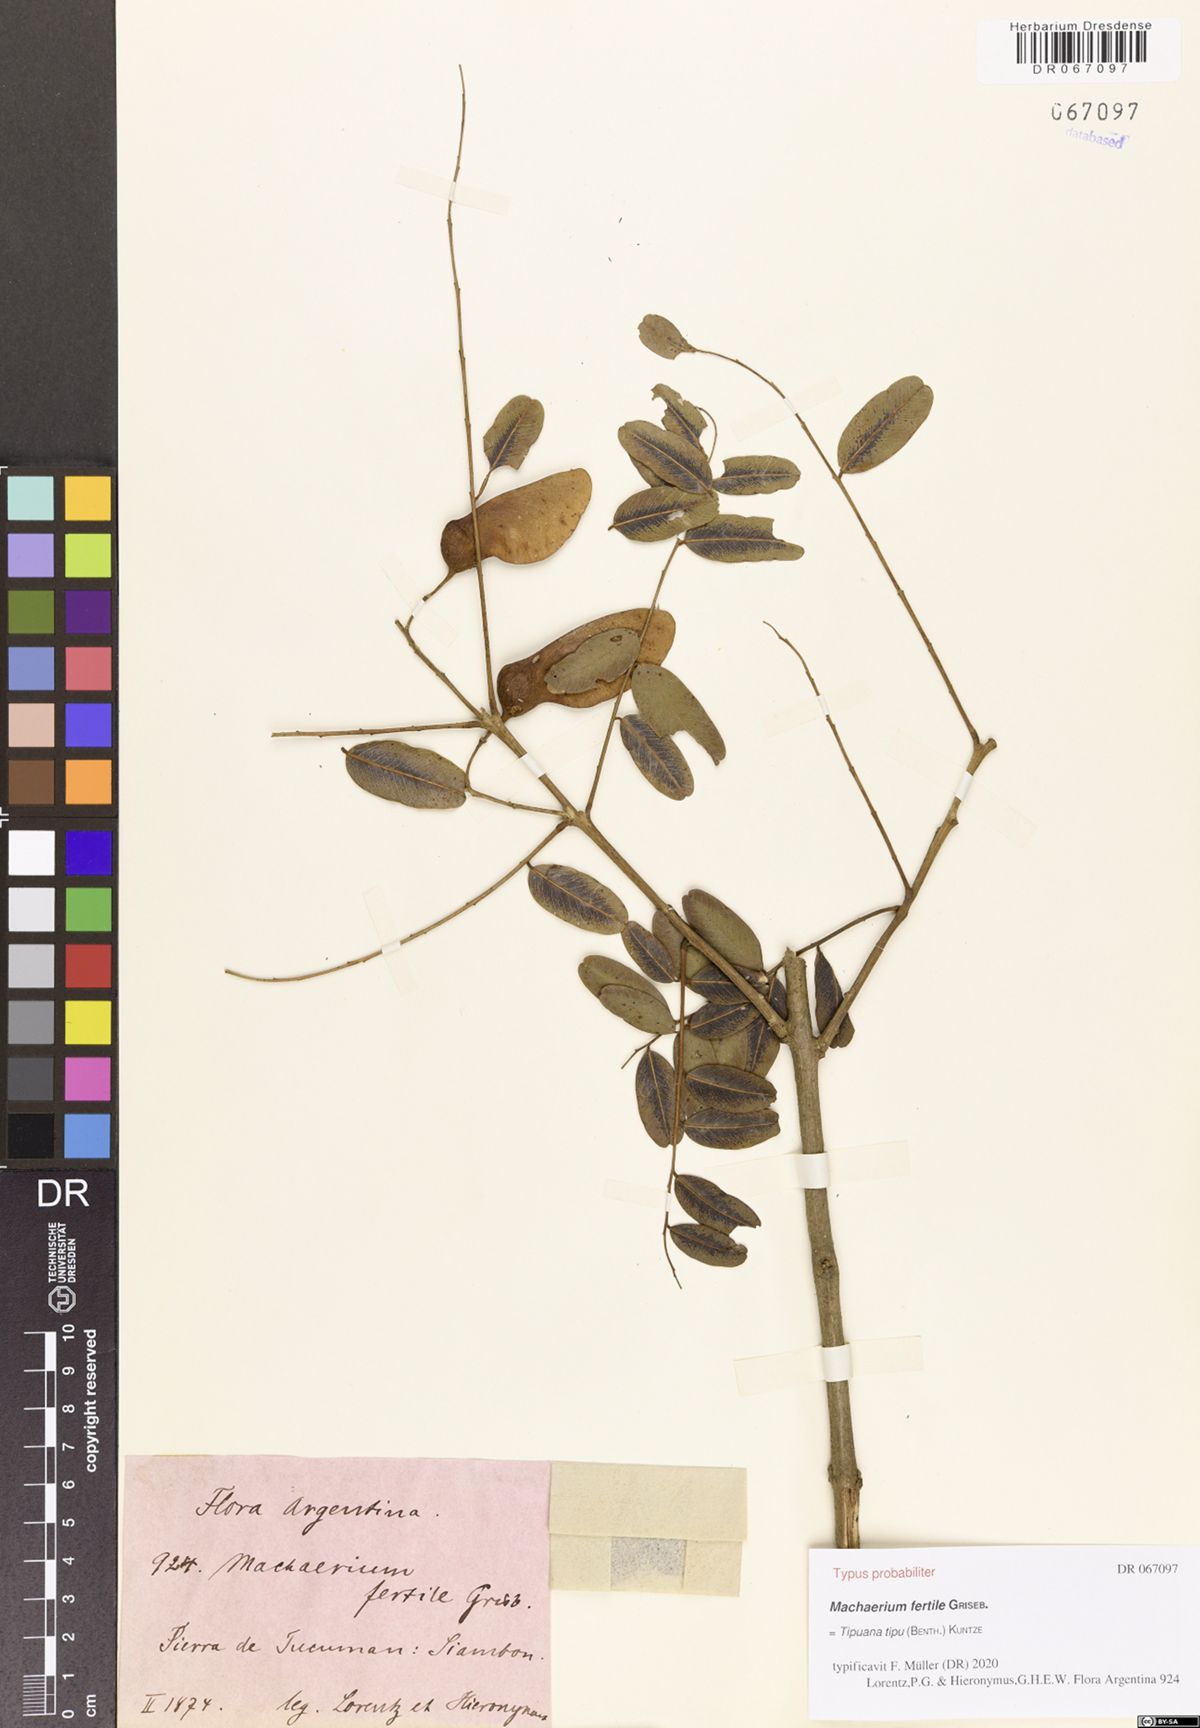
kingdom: Plantae
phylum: Tracheophyta
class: Magnoliopsida
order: Fabales
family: Fabaceae
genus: Tipuana
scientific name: Tipuana tipu
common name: Tiputree
